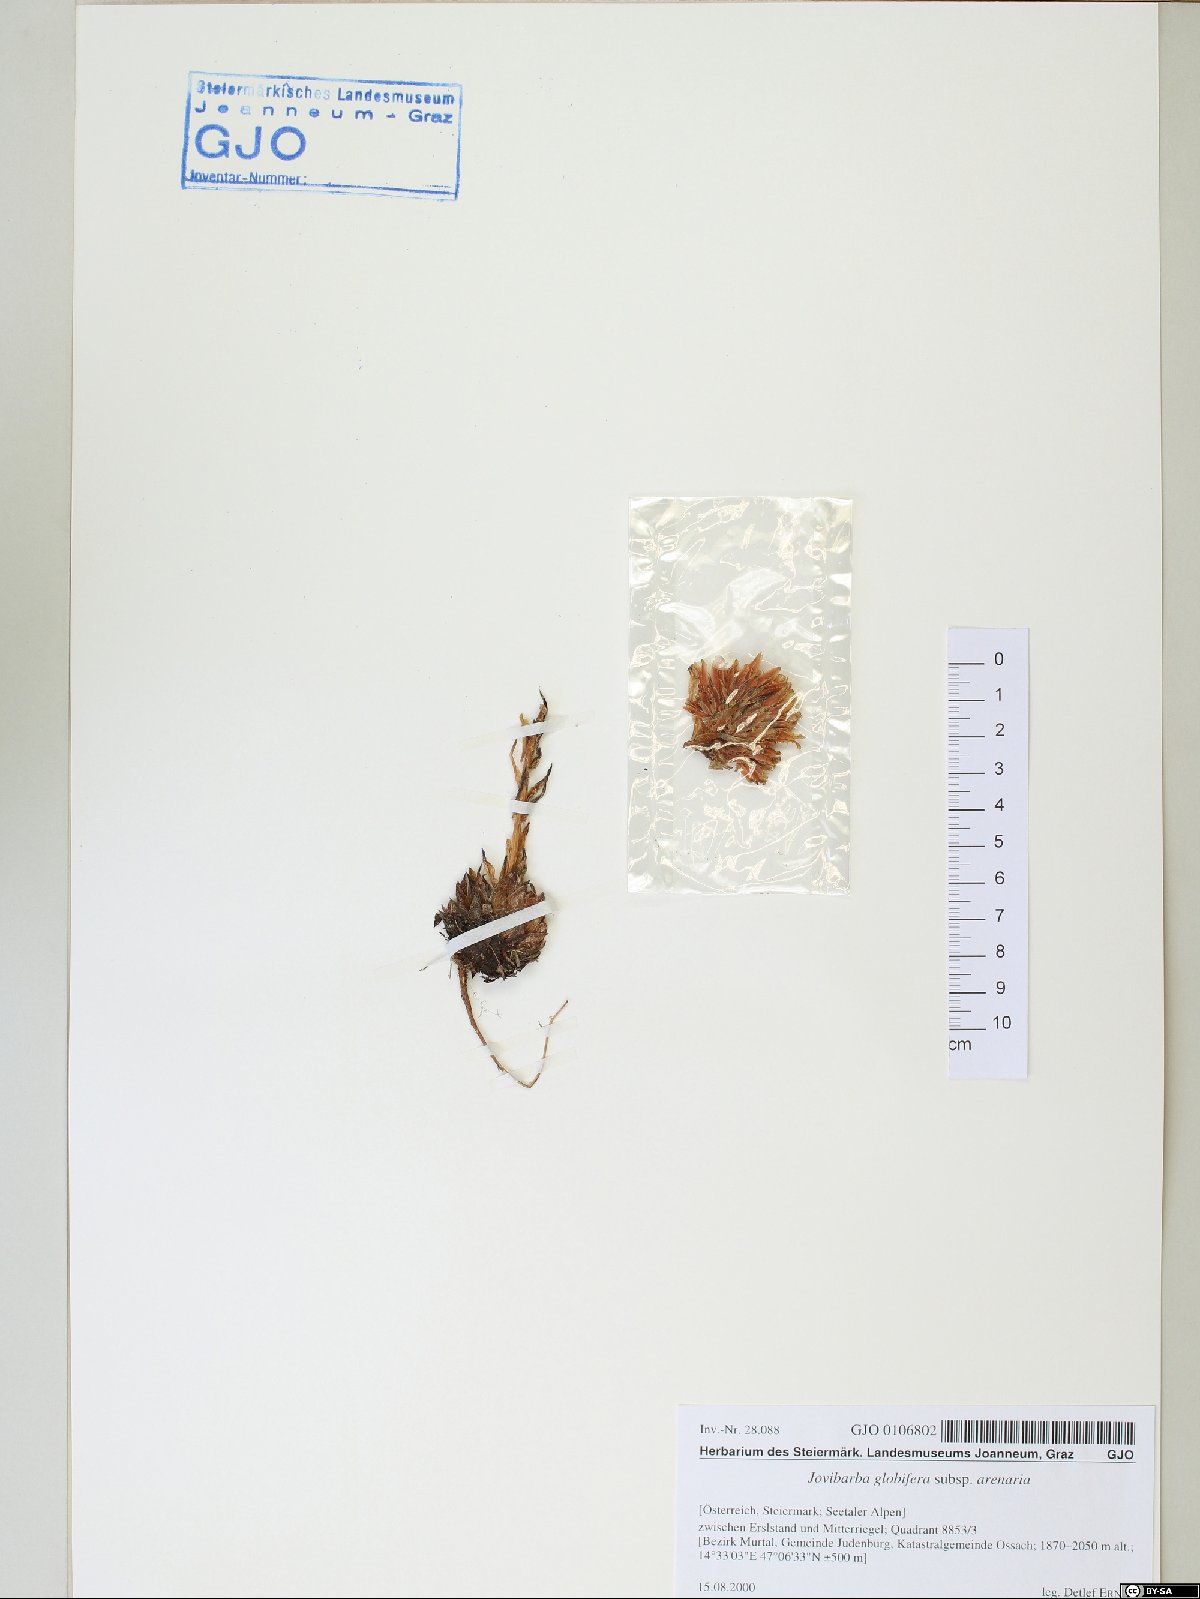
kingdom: Plantae
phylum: Tracheophyta
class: Magnoliopsida
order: Saxifragales
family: Crassulaceae
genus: Sempervivum
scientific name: Sempervivum globiferum
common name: Rolling hen-and-chicks
